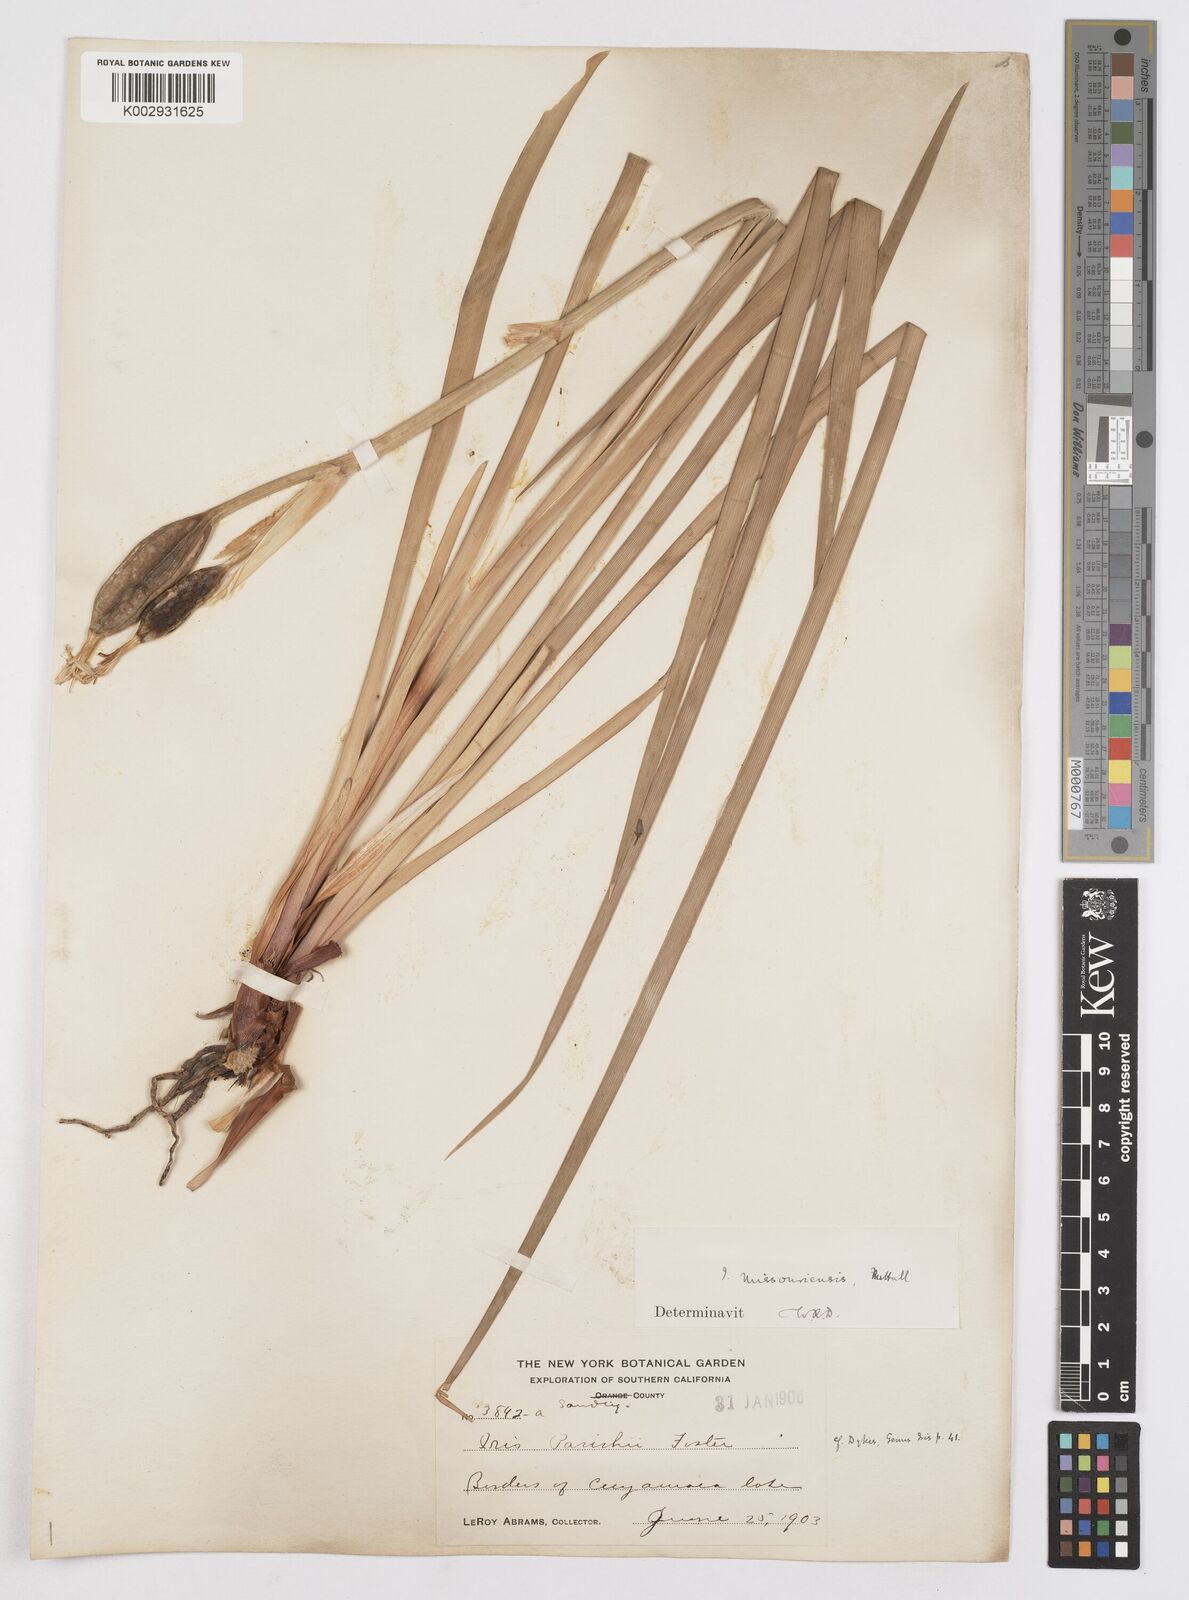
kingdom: Plantae
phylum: Tracheophyta
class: Liliopsida
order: Asparagales
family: Iridaceae
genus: Iris
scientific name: Iris missouriensis
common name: Rocky mountain iris
